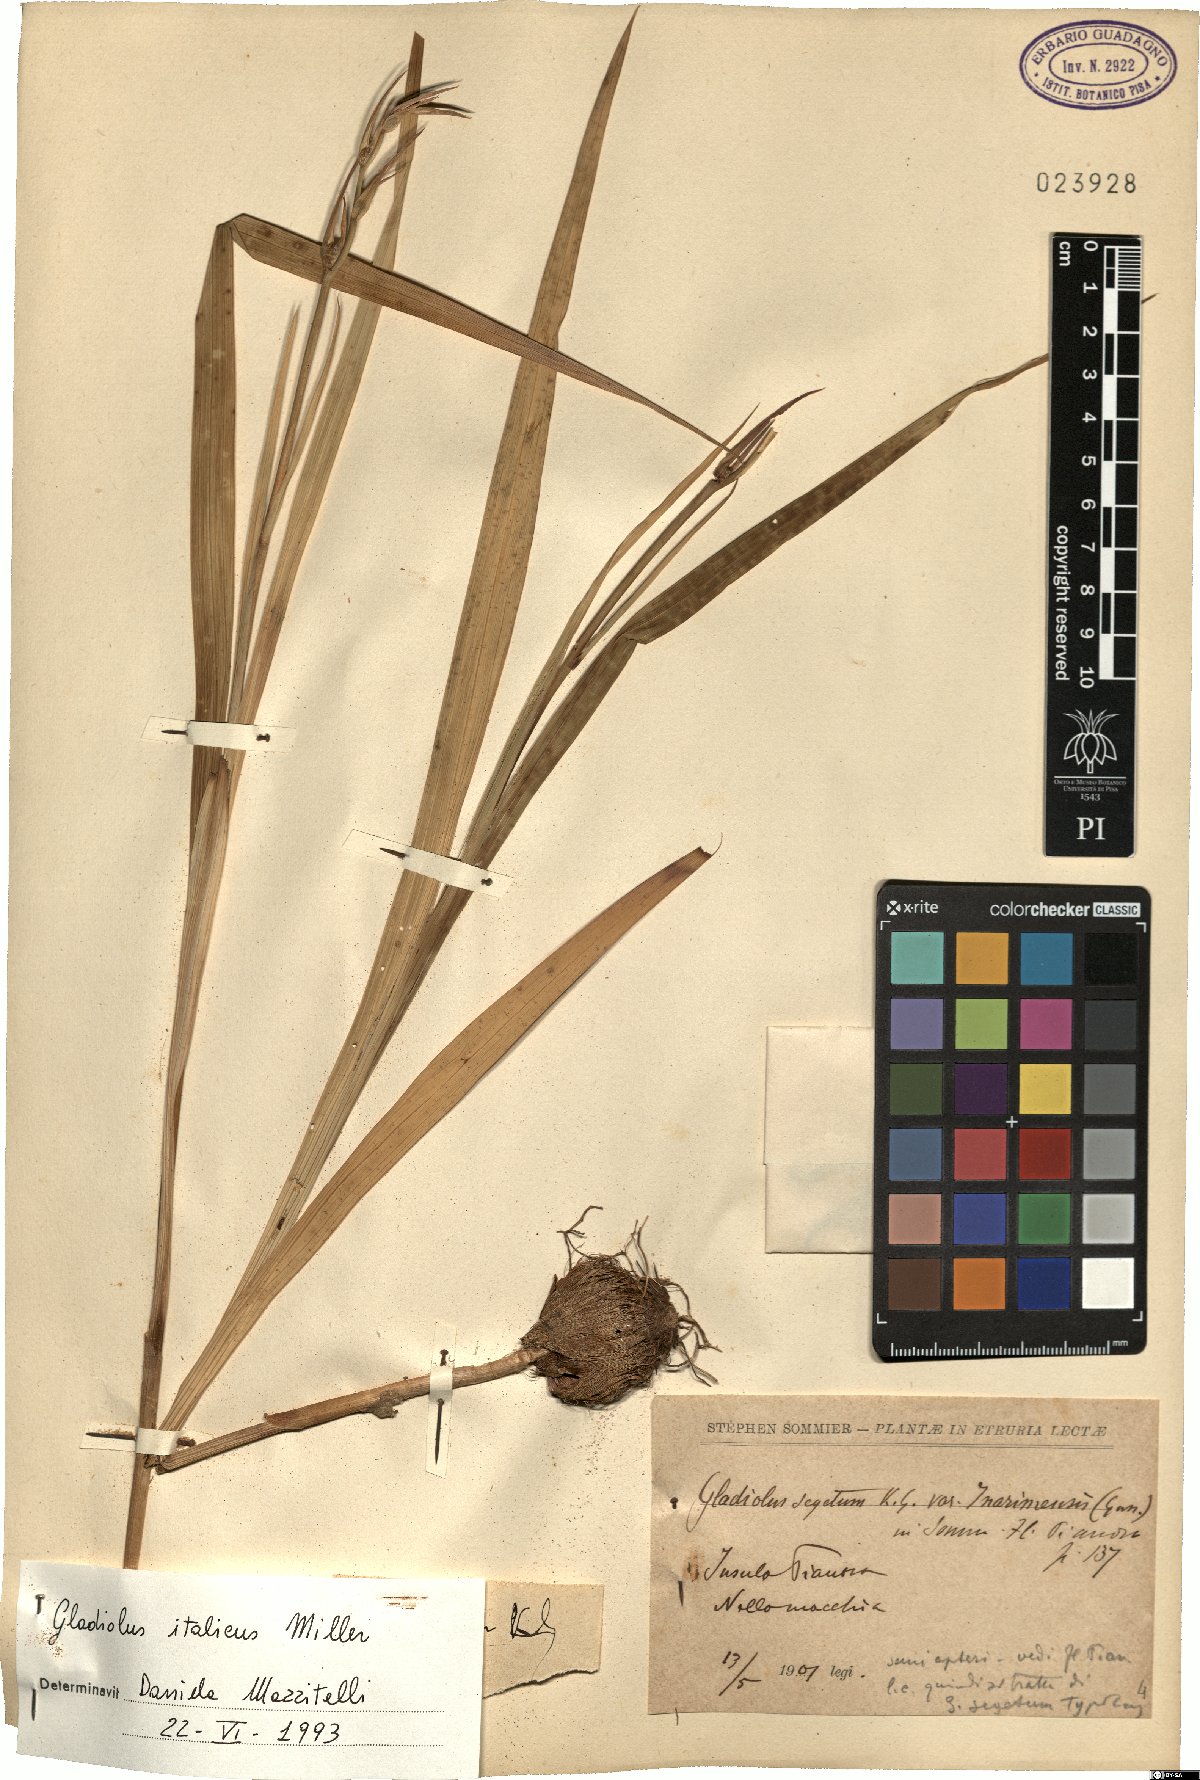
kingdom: Plantae
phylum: Tracheophyta
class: Liliopsida
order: Asparagales
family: Iridaceae
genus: Gladiolus
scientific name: Gladiolus italicus
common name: Field gladiolus
